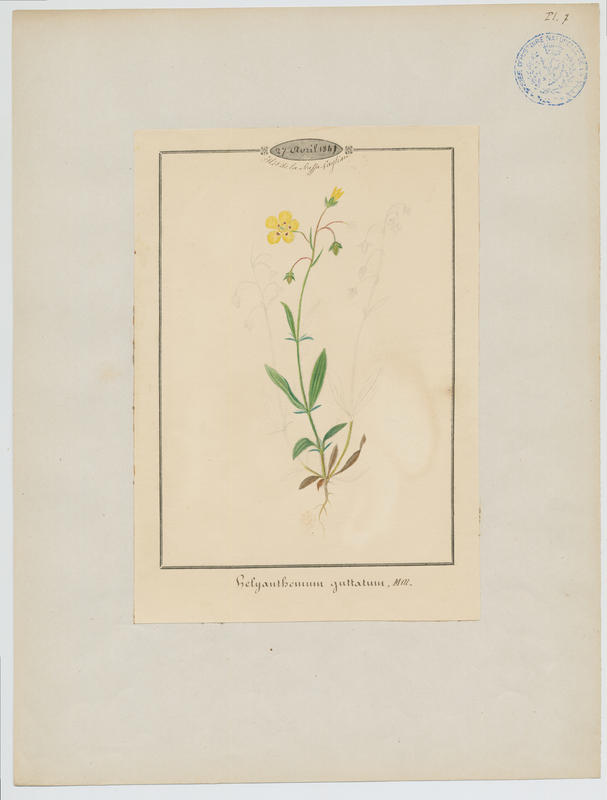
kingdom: Plantae
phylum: Tracheophyta
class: Magnoliopsida
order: Malvales
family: Cistaceae
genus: Tuberaria
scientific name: Tuberaria guttata
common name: Spotted rock-rose
